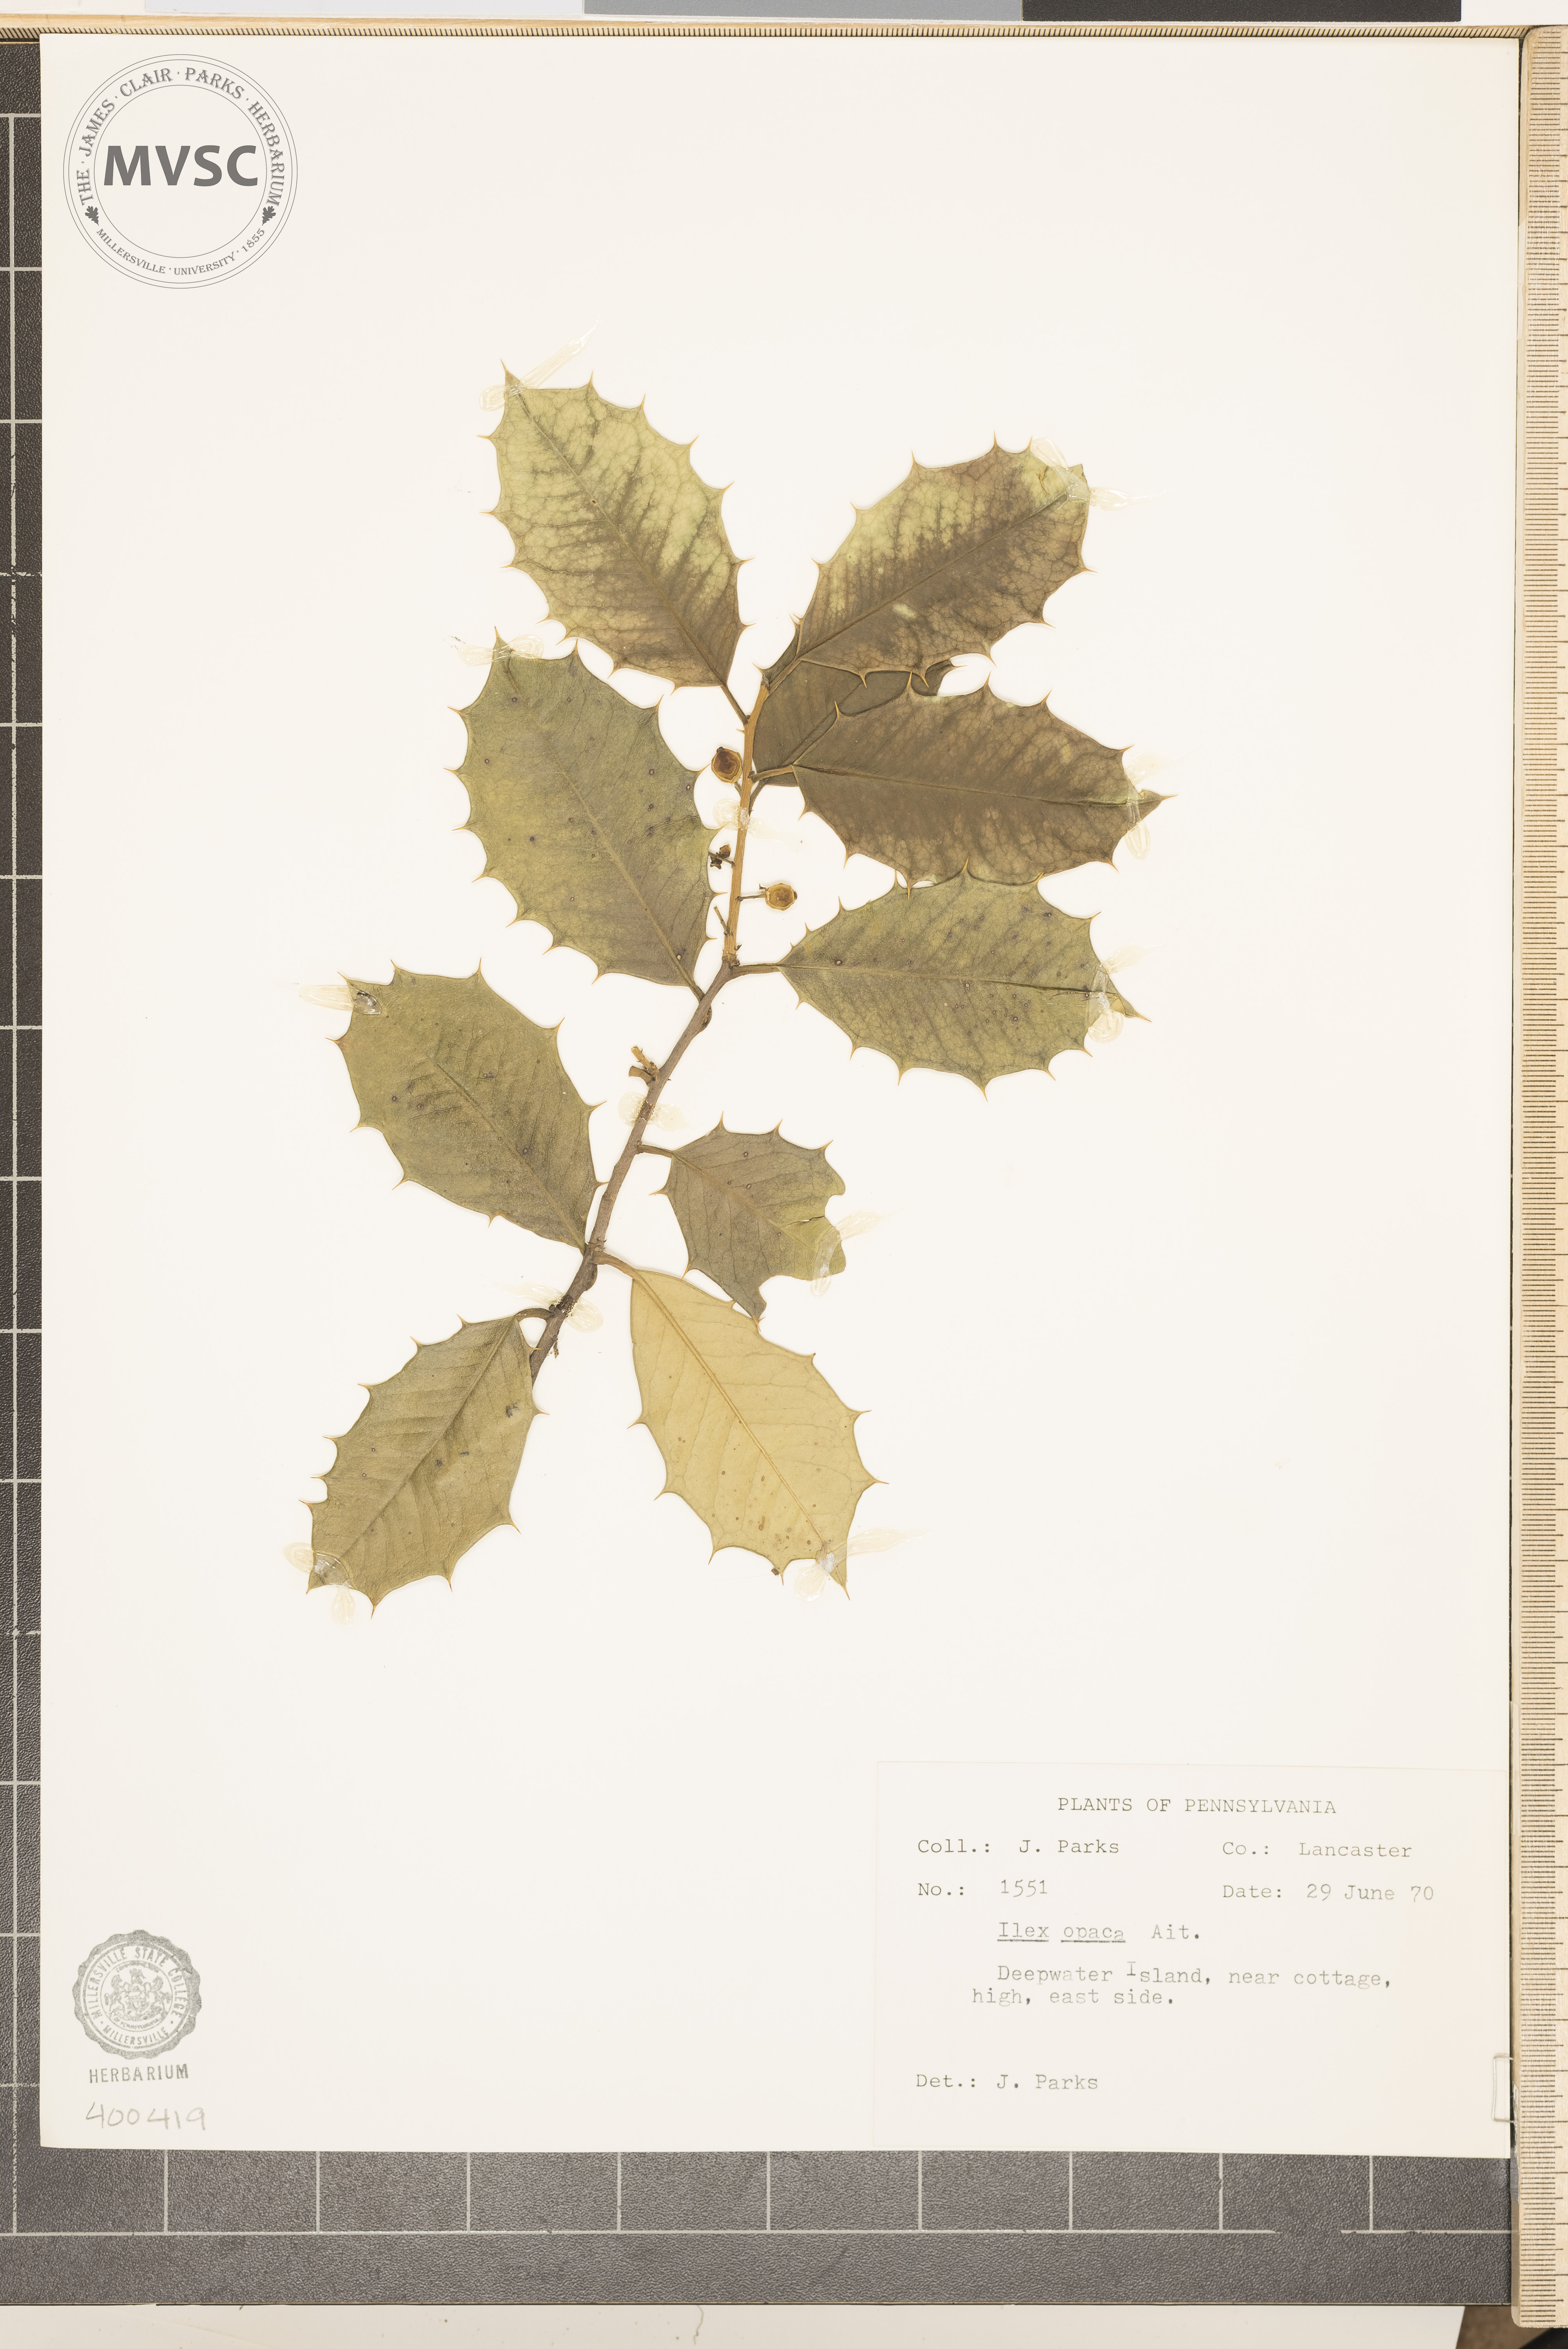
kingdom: Plantae
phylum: Tracheophyta
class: Magnoliopsida
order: Aquifoliales
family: Aquifoliaceae
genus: Ilex
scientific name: Ilex opaca
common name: American holly
